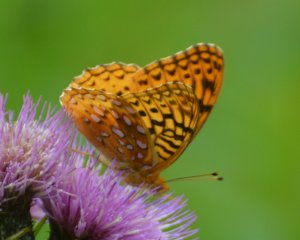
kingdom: Animalia
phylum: Arthropoda
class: Insecta
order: Lepidoptera
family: Nymphalidae
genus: Speyeria
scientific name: Speyeria cybele
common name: Great Spangled Fritillary
